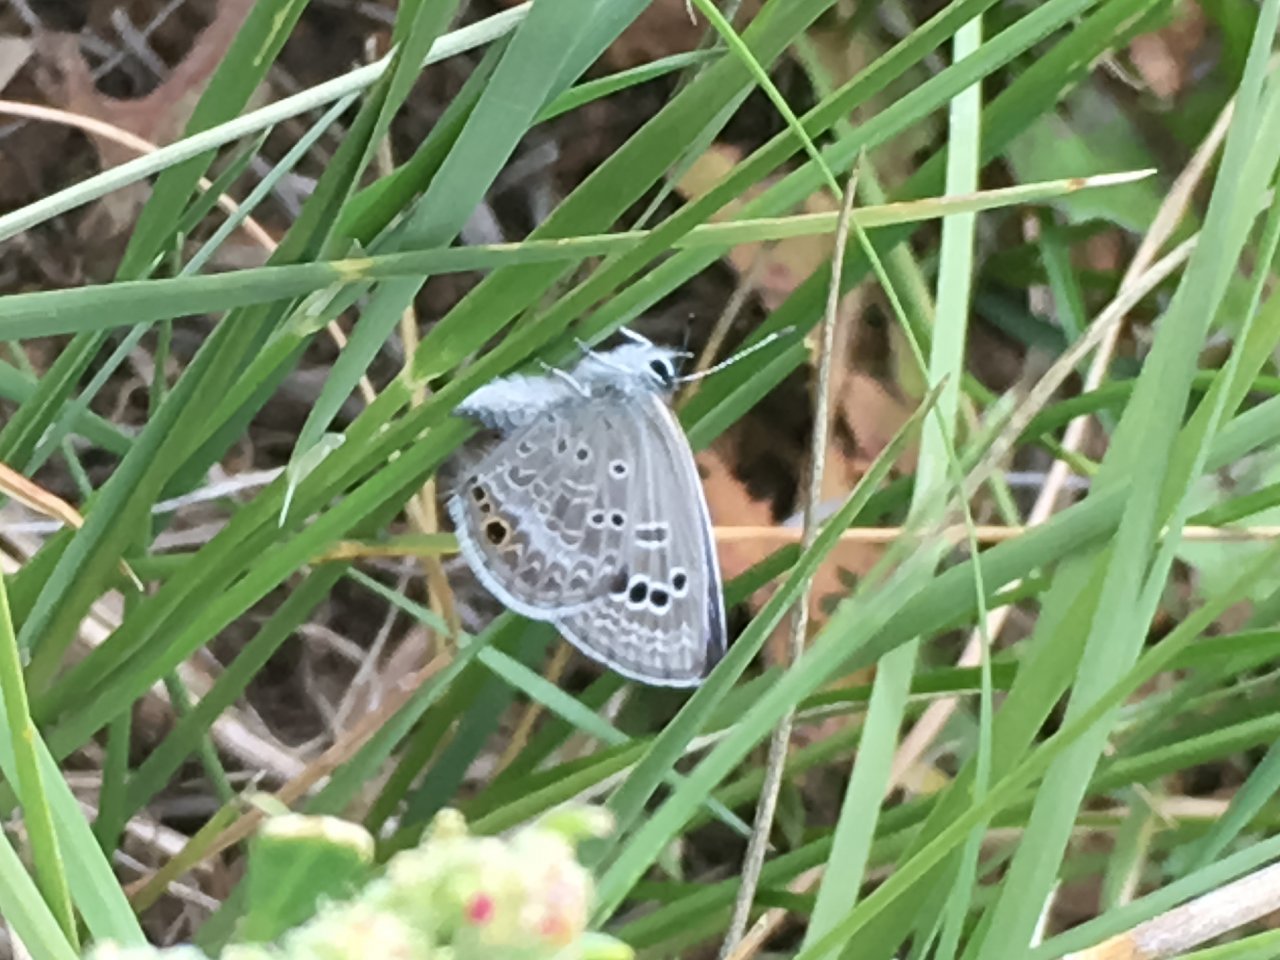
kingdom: Animalia
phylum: Arthropoda
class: Insecta
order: Lepidoptera
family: Lycaenidae
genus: Echinargus
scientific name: Echinargus isola
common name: Reakirt's Blue
